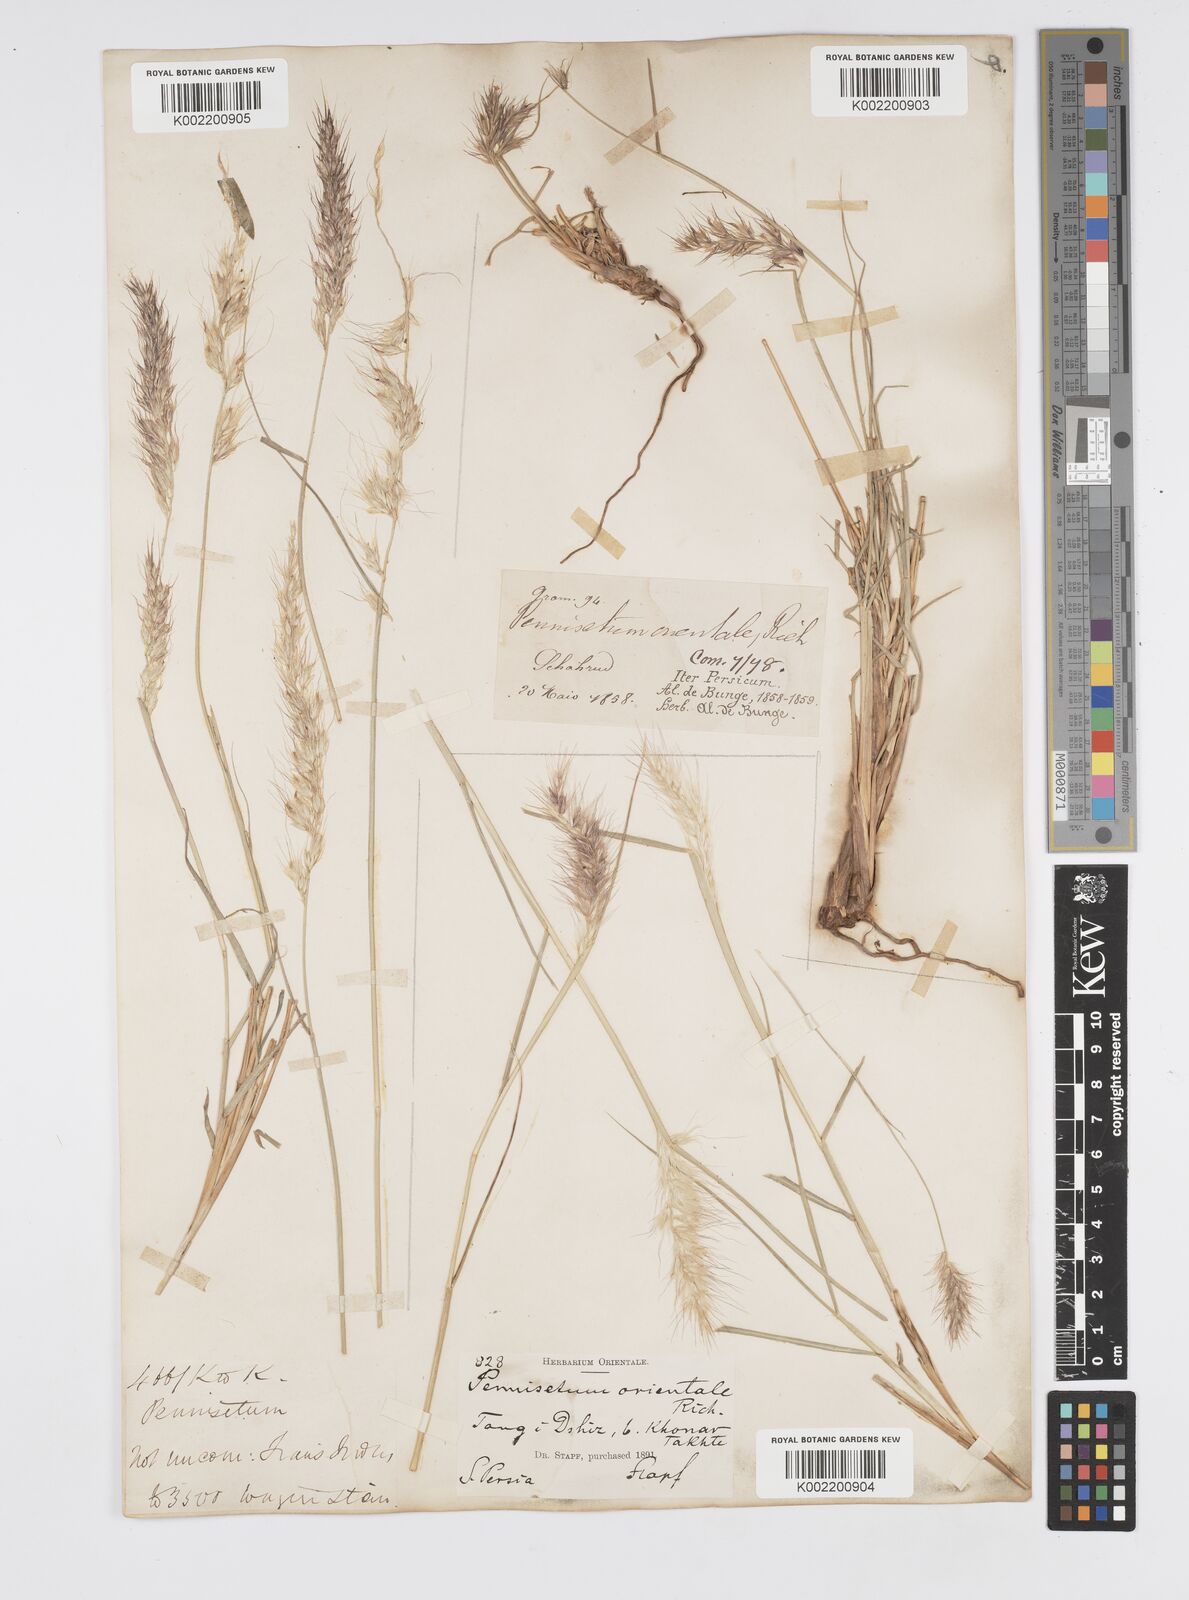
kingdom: Plantae
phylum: Tracheophyta
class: Liliopsida
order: Poales
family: Poaceae
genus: Cenchrus
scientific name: Cenchrus orientalis
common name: Oriental fountain grass
